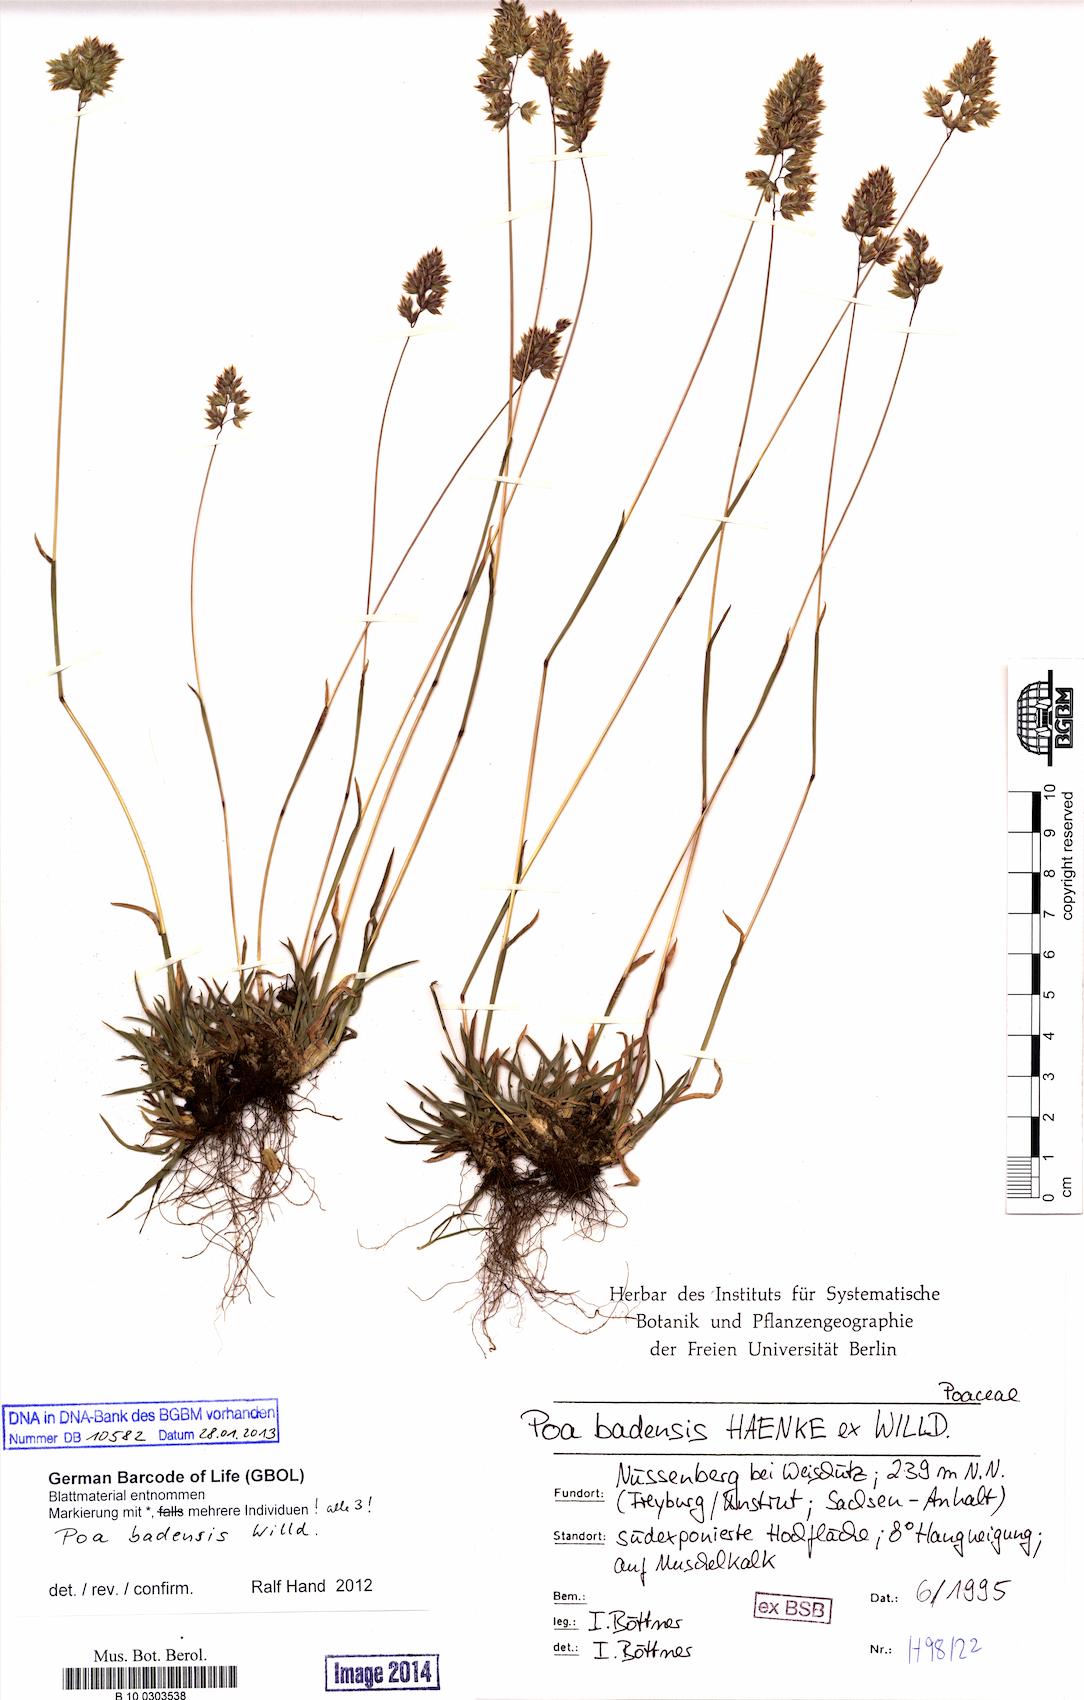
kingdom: Plantae
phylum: Tracheophyta
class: Liliopsida
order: Poales
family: Poaceae
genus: Poa
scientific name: Poa badensis
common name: Baden's bluegrass
